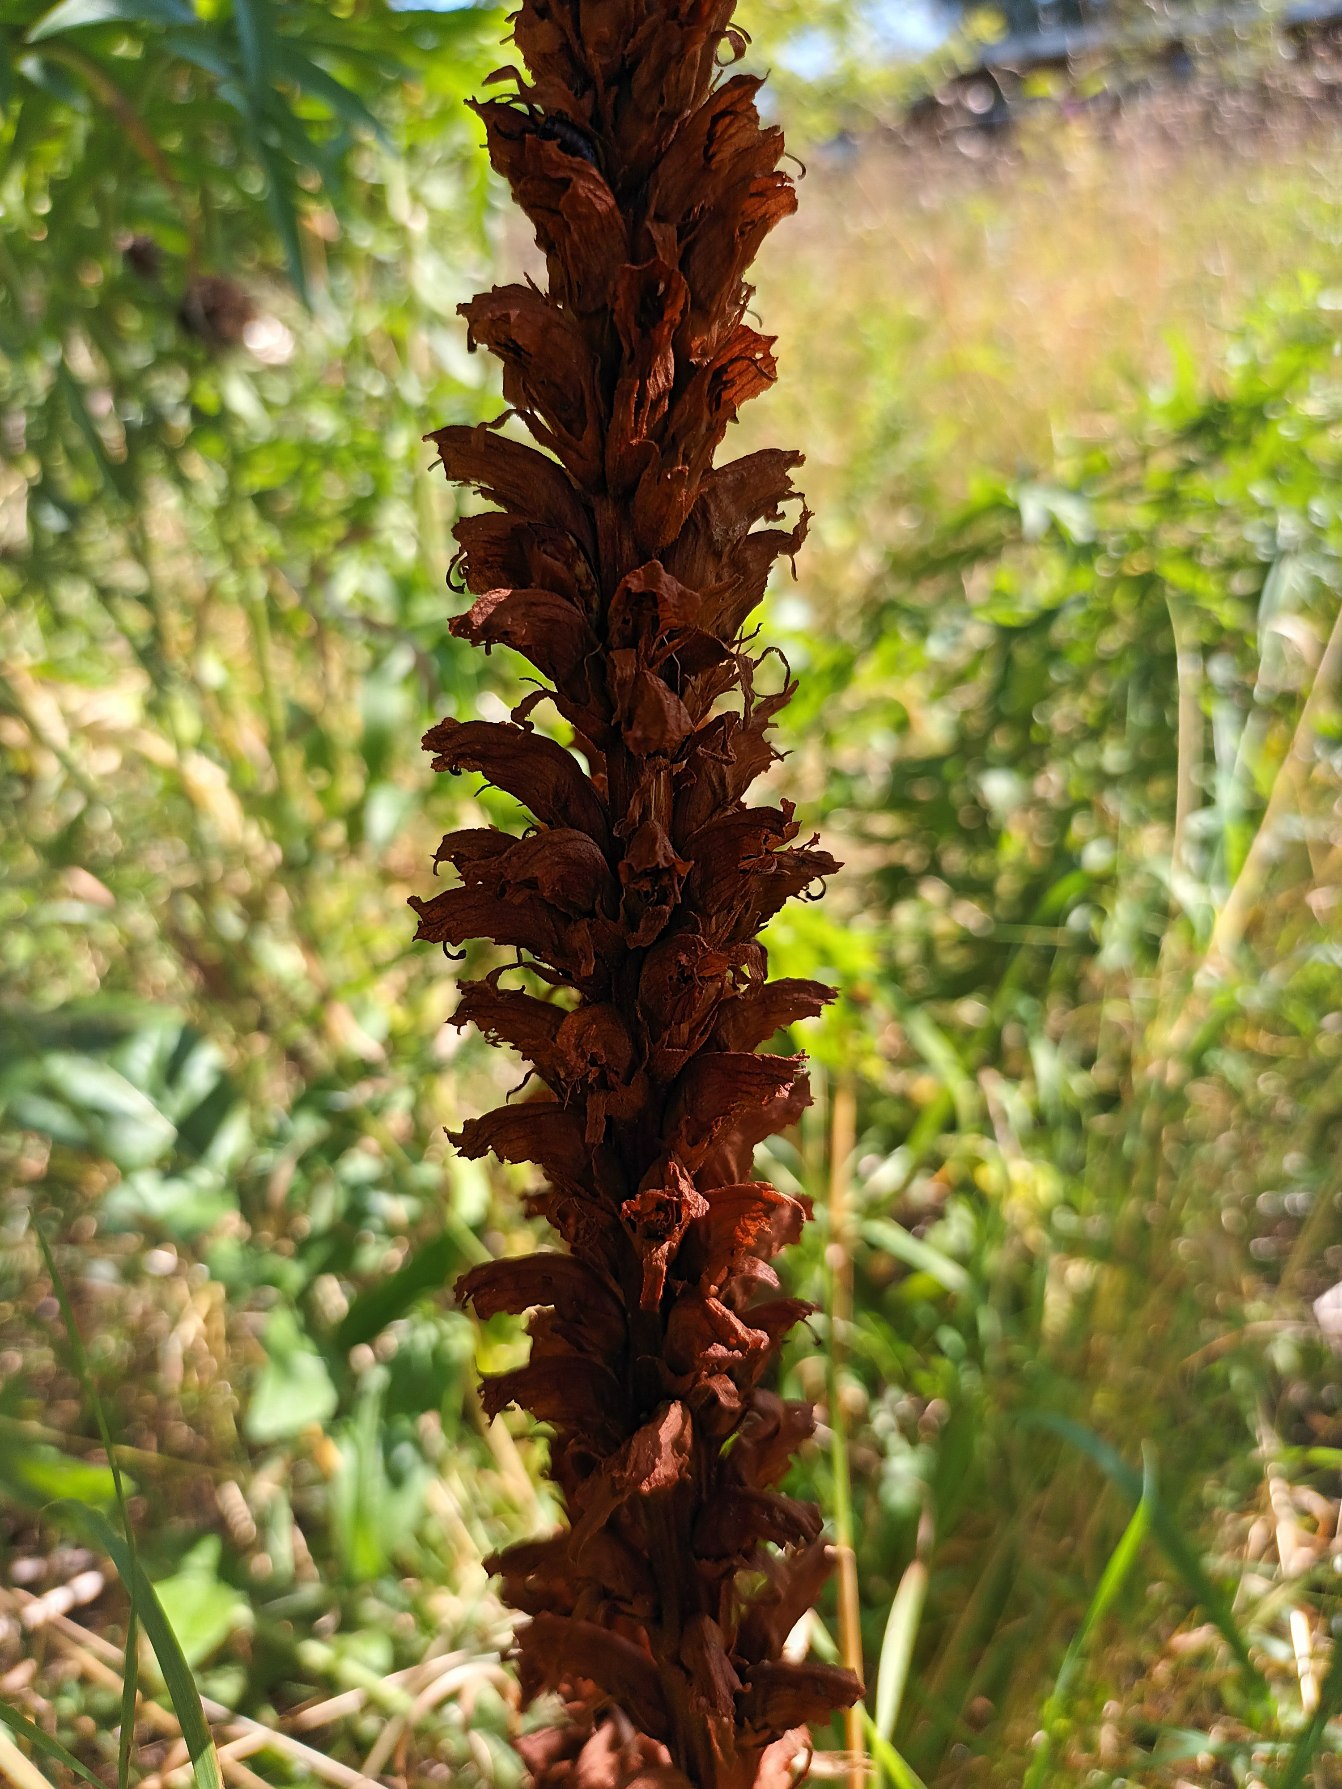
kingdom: Plantae
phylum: Tracheophyta
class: Magnoliopsida
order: Lamiales
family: Orobanchaceae
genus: Orobanche
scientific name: Orobanche elatior
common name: Stor gyvelkvæler
